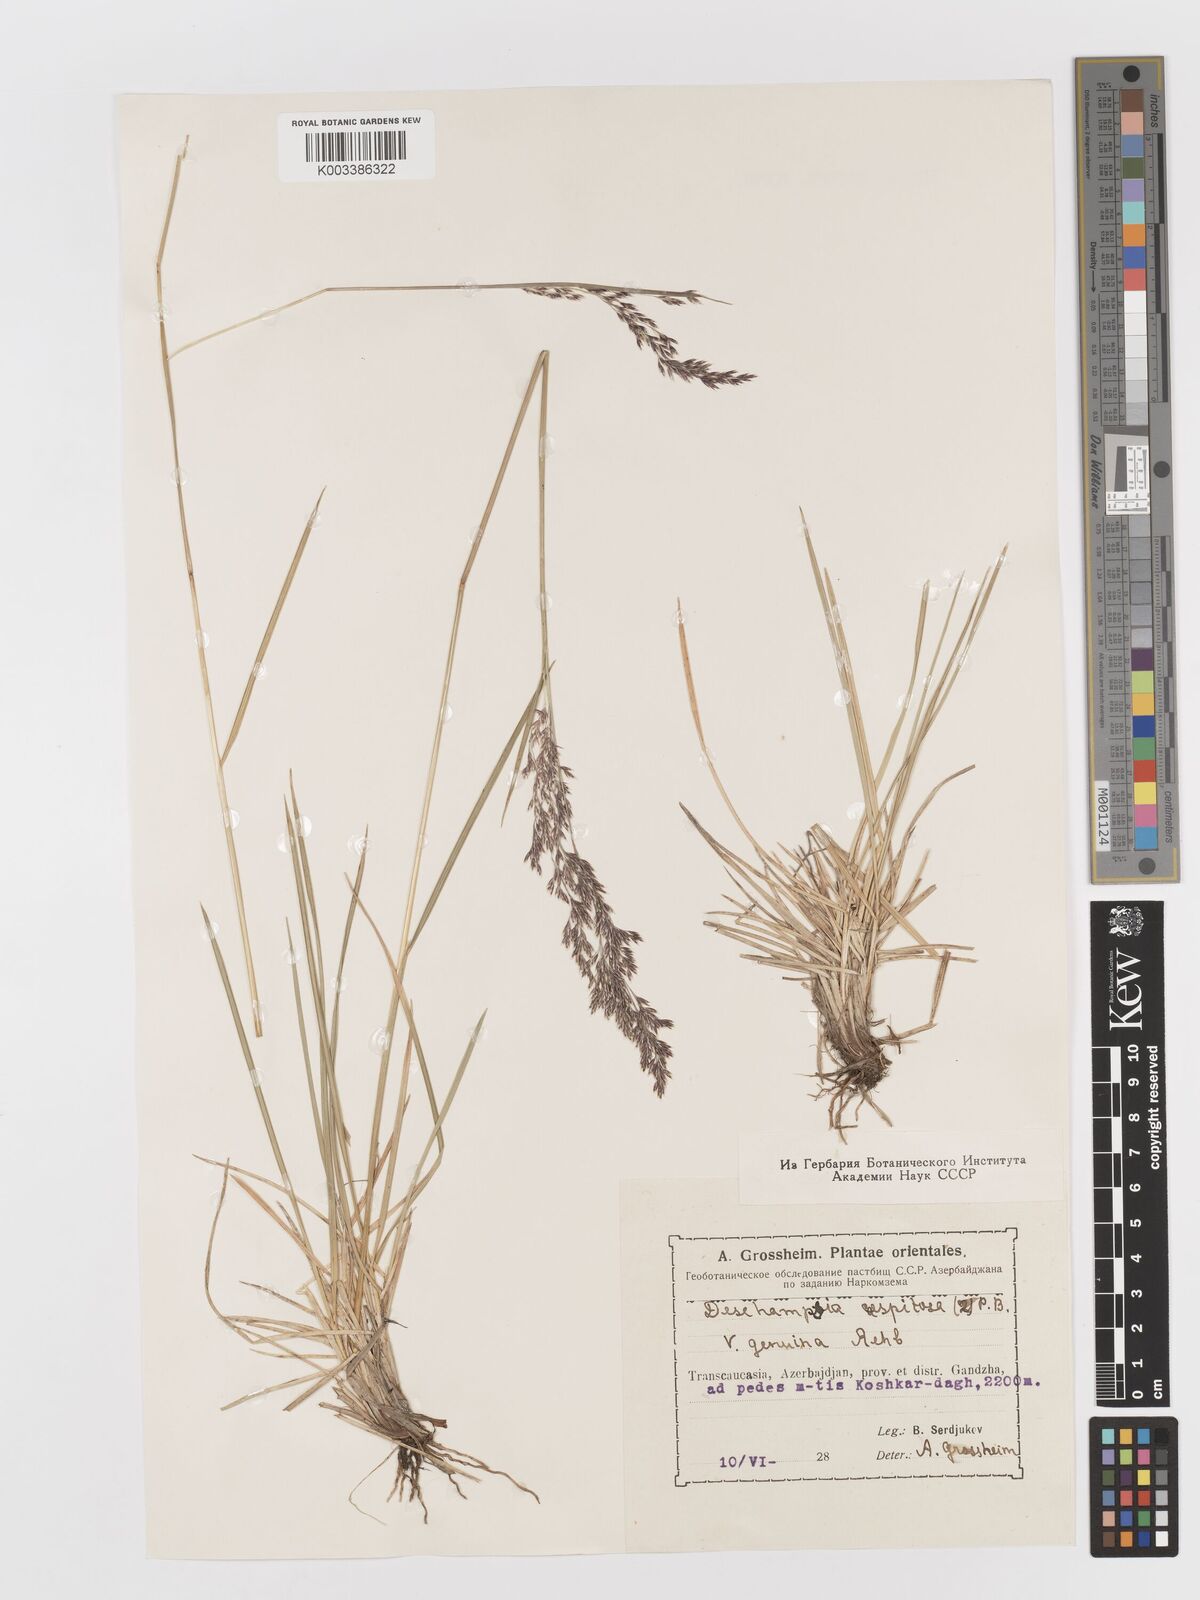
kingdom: Plantae
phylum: Tracheophyta
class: Liliopsida
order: Poales
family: Poaceae
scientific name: Poaceae
